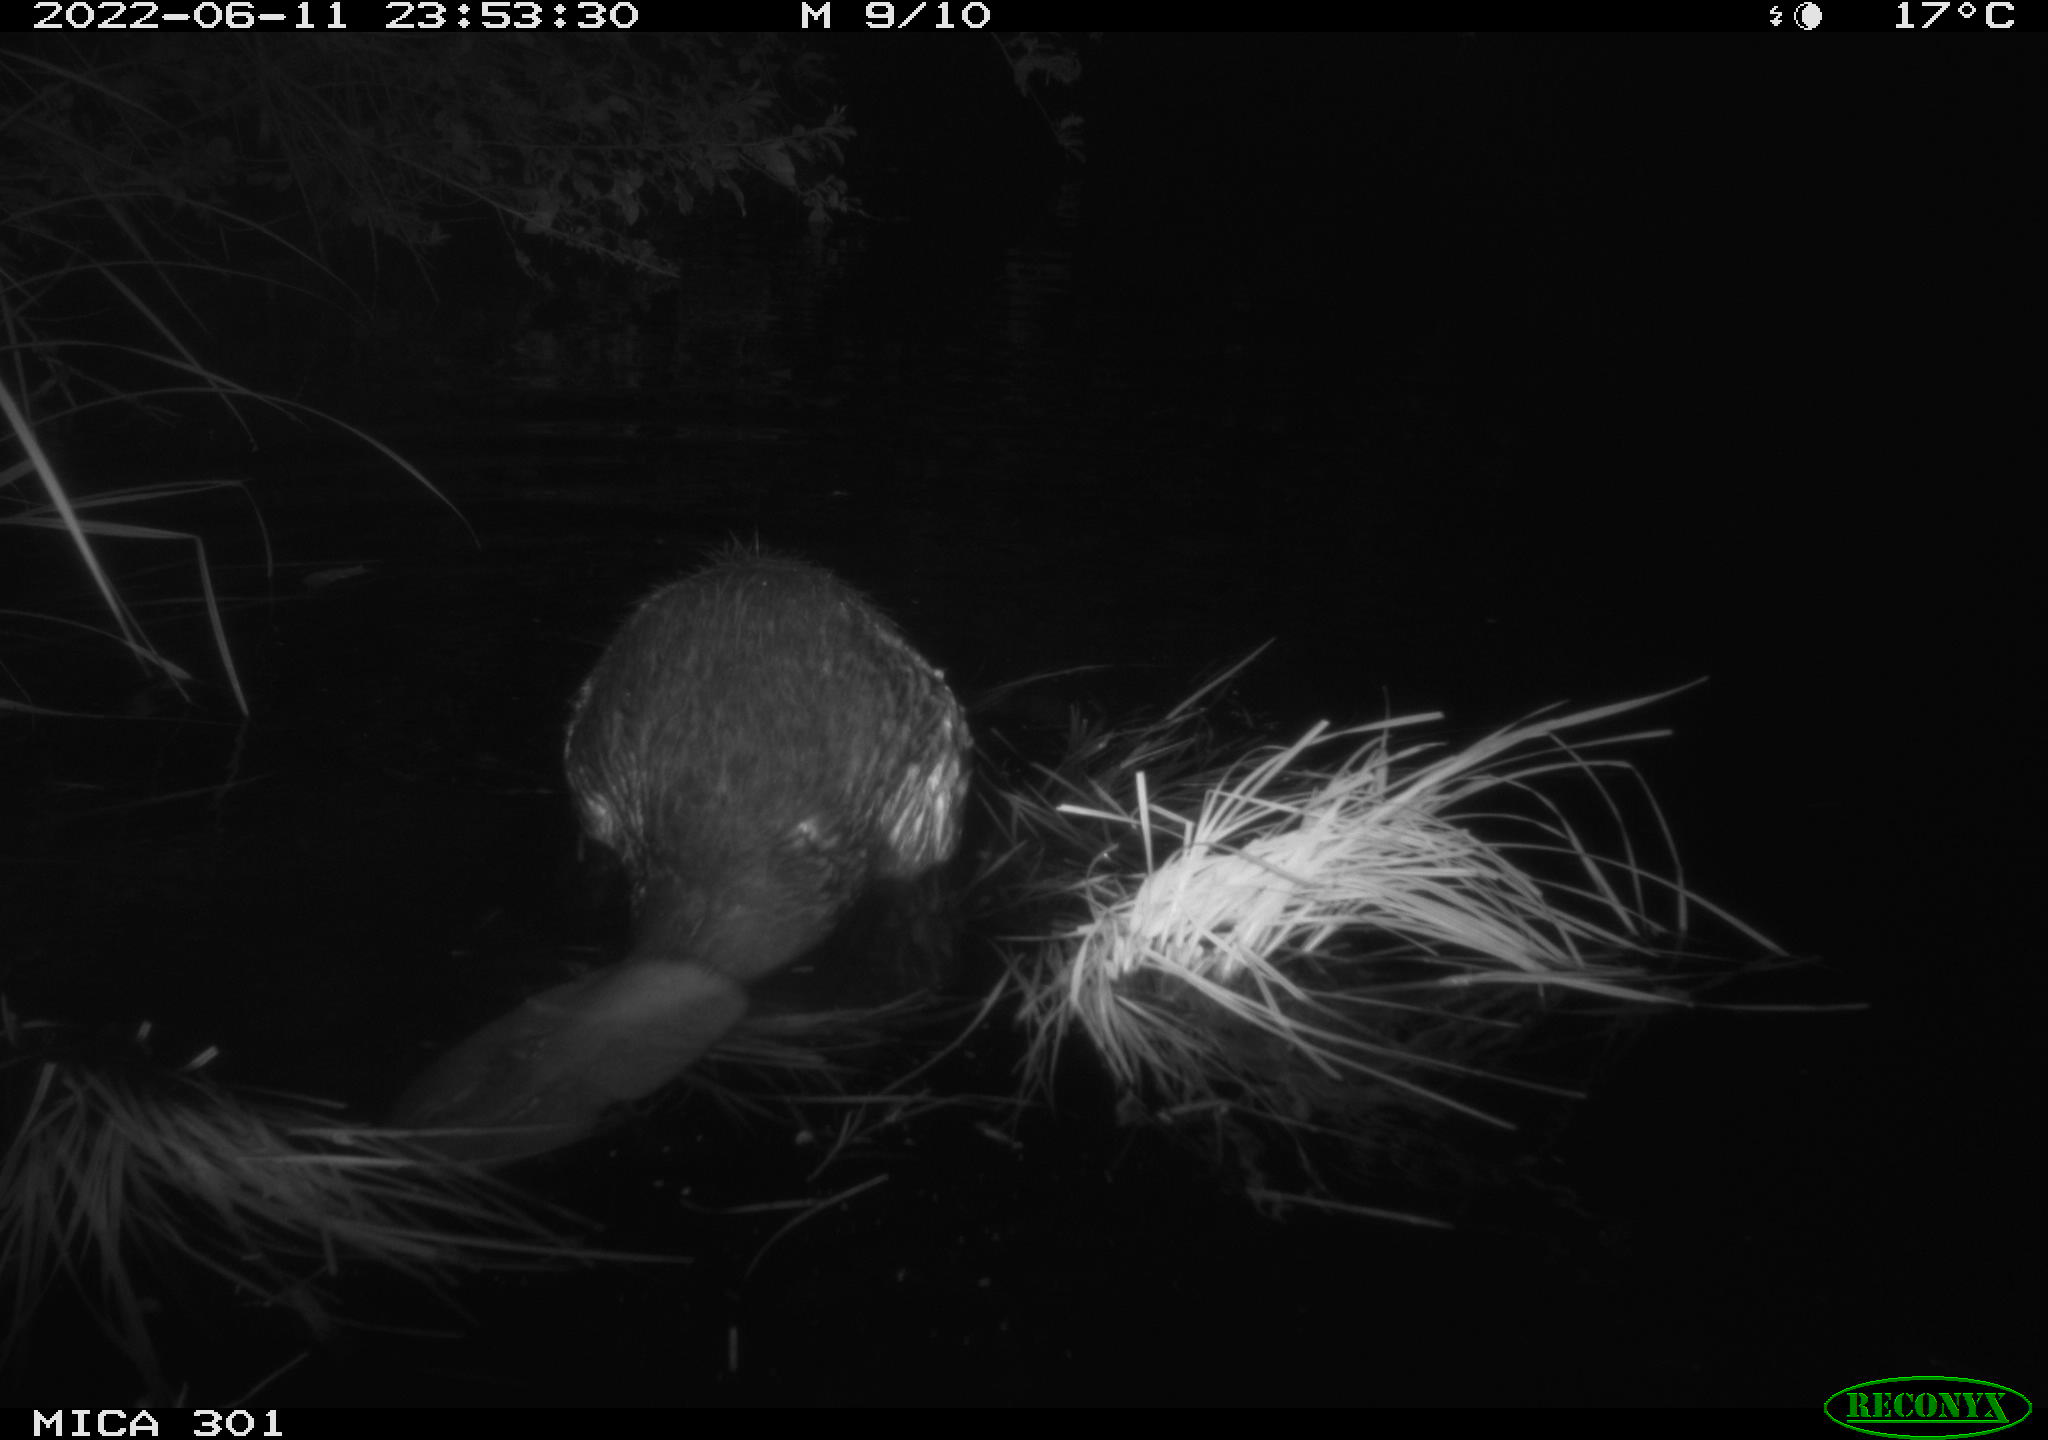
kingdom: Animalia
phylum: Chordata
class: Mammalia
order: Rodentia
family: Castoridae
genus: Castor
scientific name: Castor fiber
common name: Eurasian beaver
